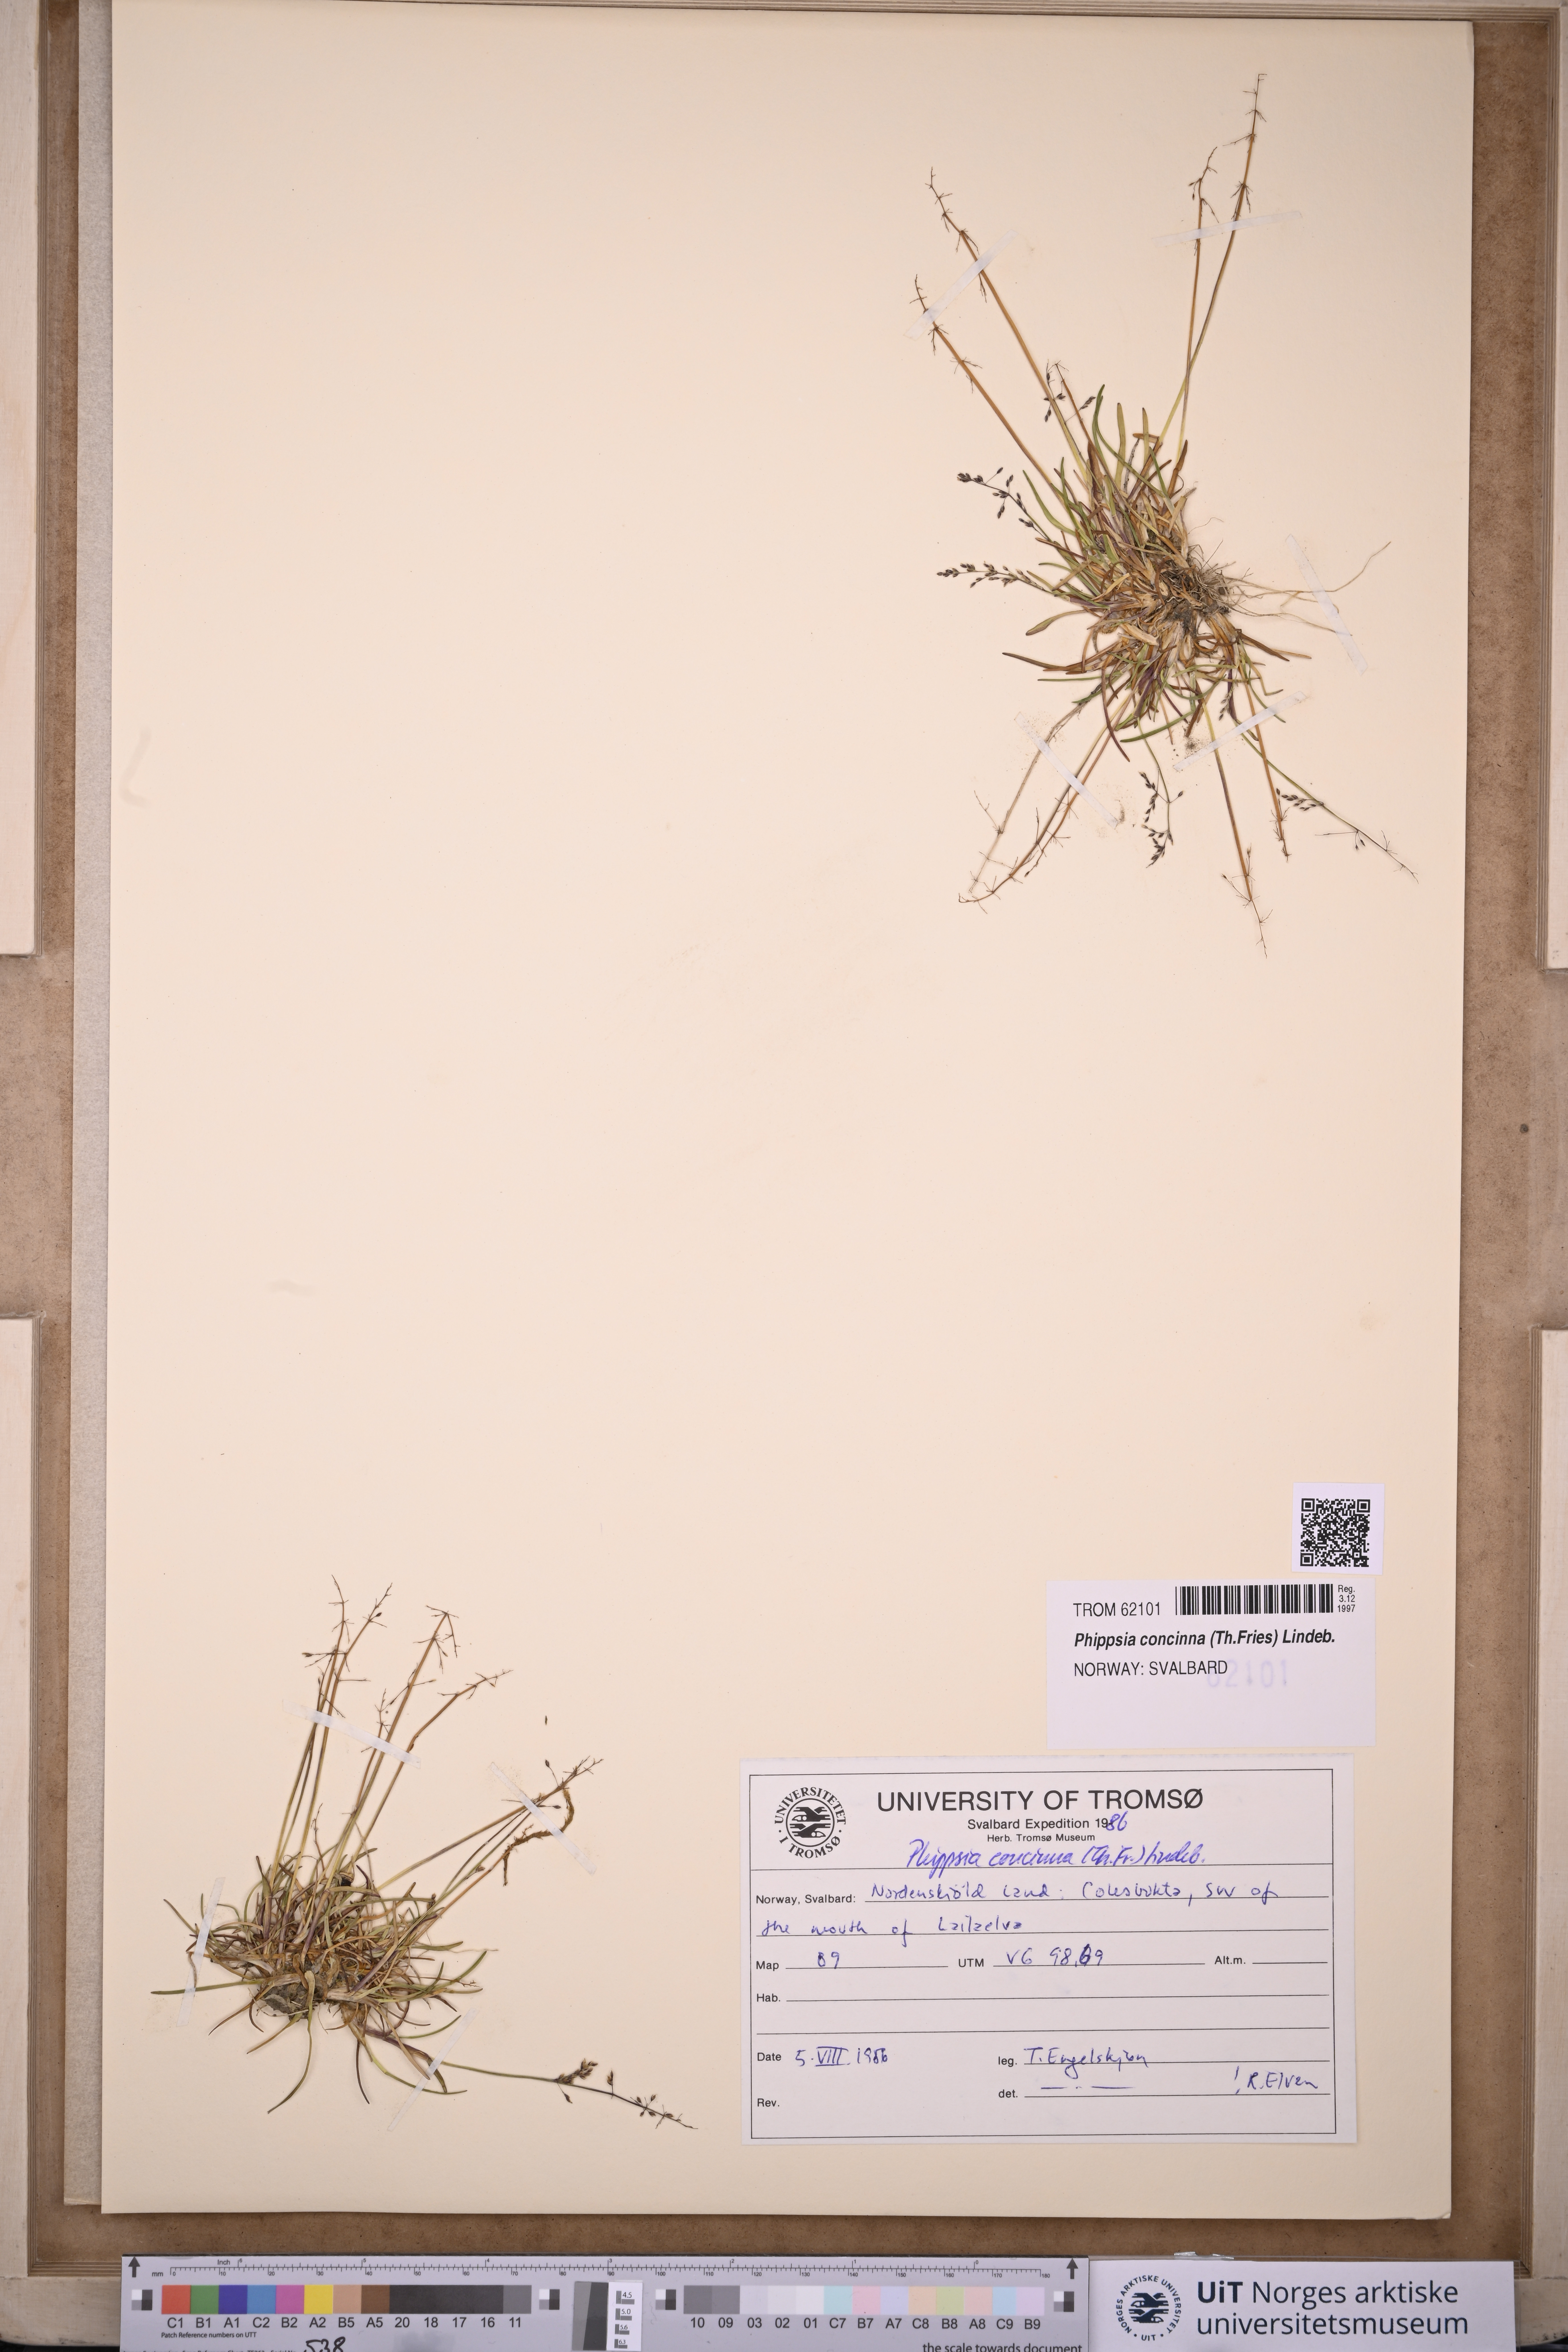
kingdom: Plantae
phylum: Tracheophyta
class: Liliopsida
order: Poales
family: Poaceae
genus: Phippsia
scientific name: Phippsia concinna
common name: Snowgrass
